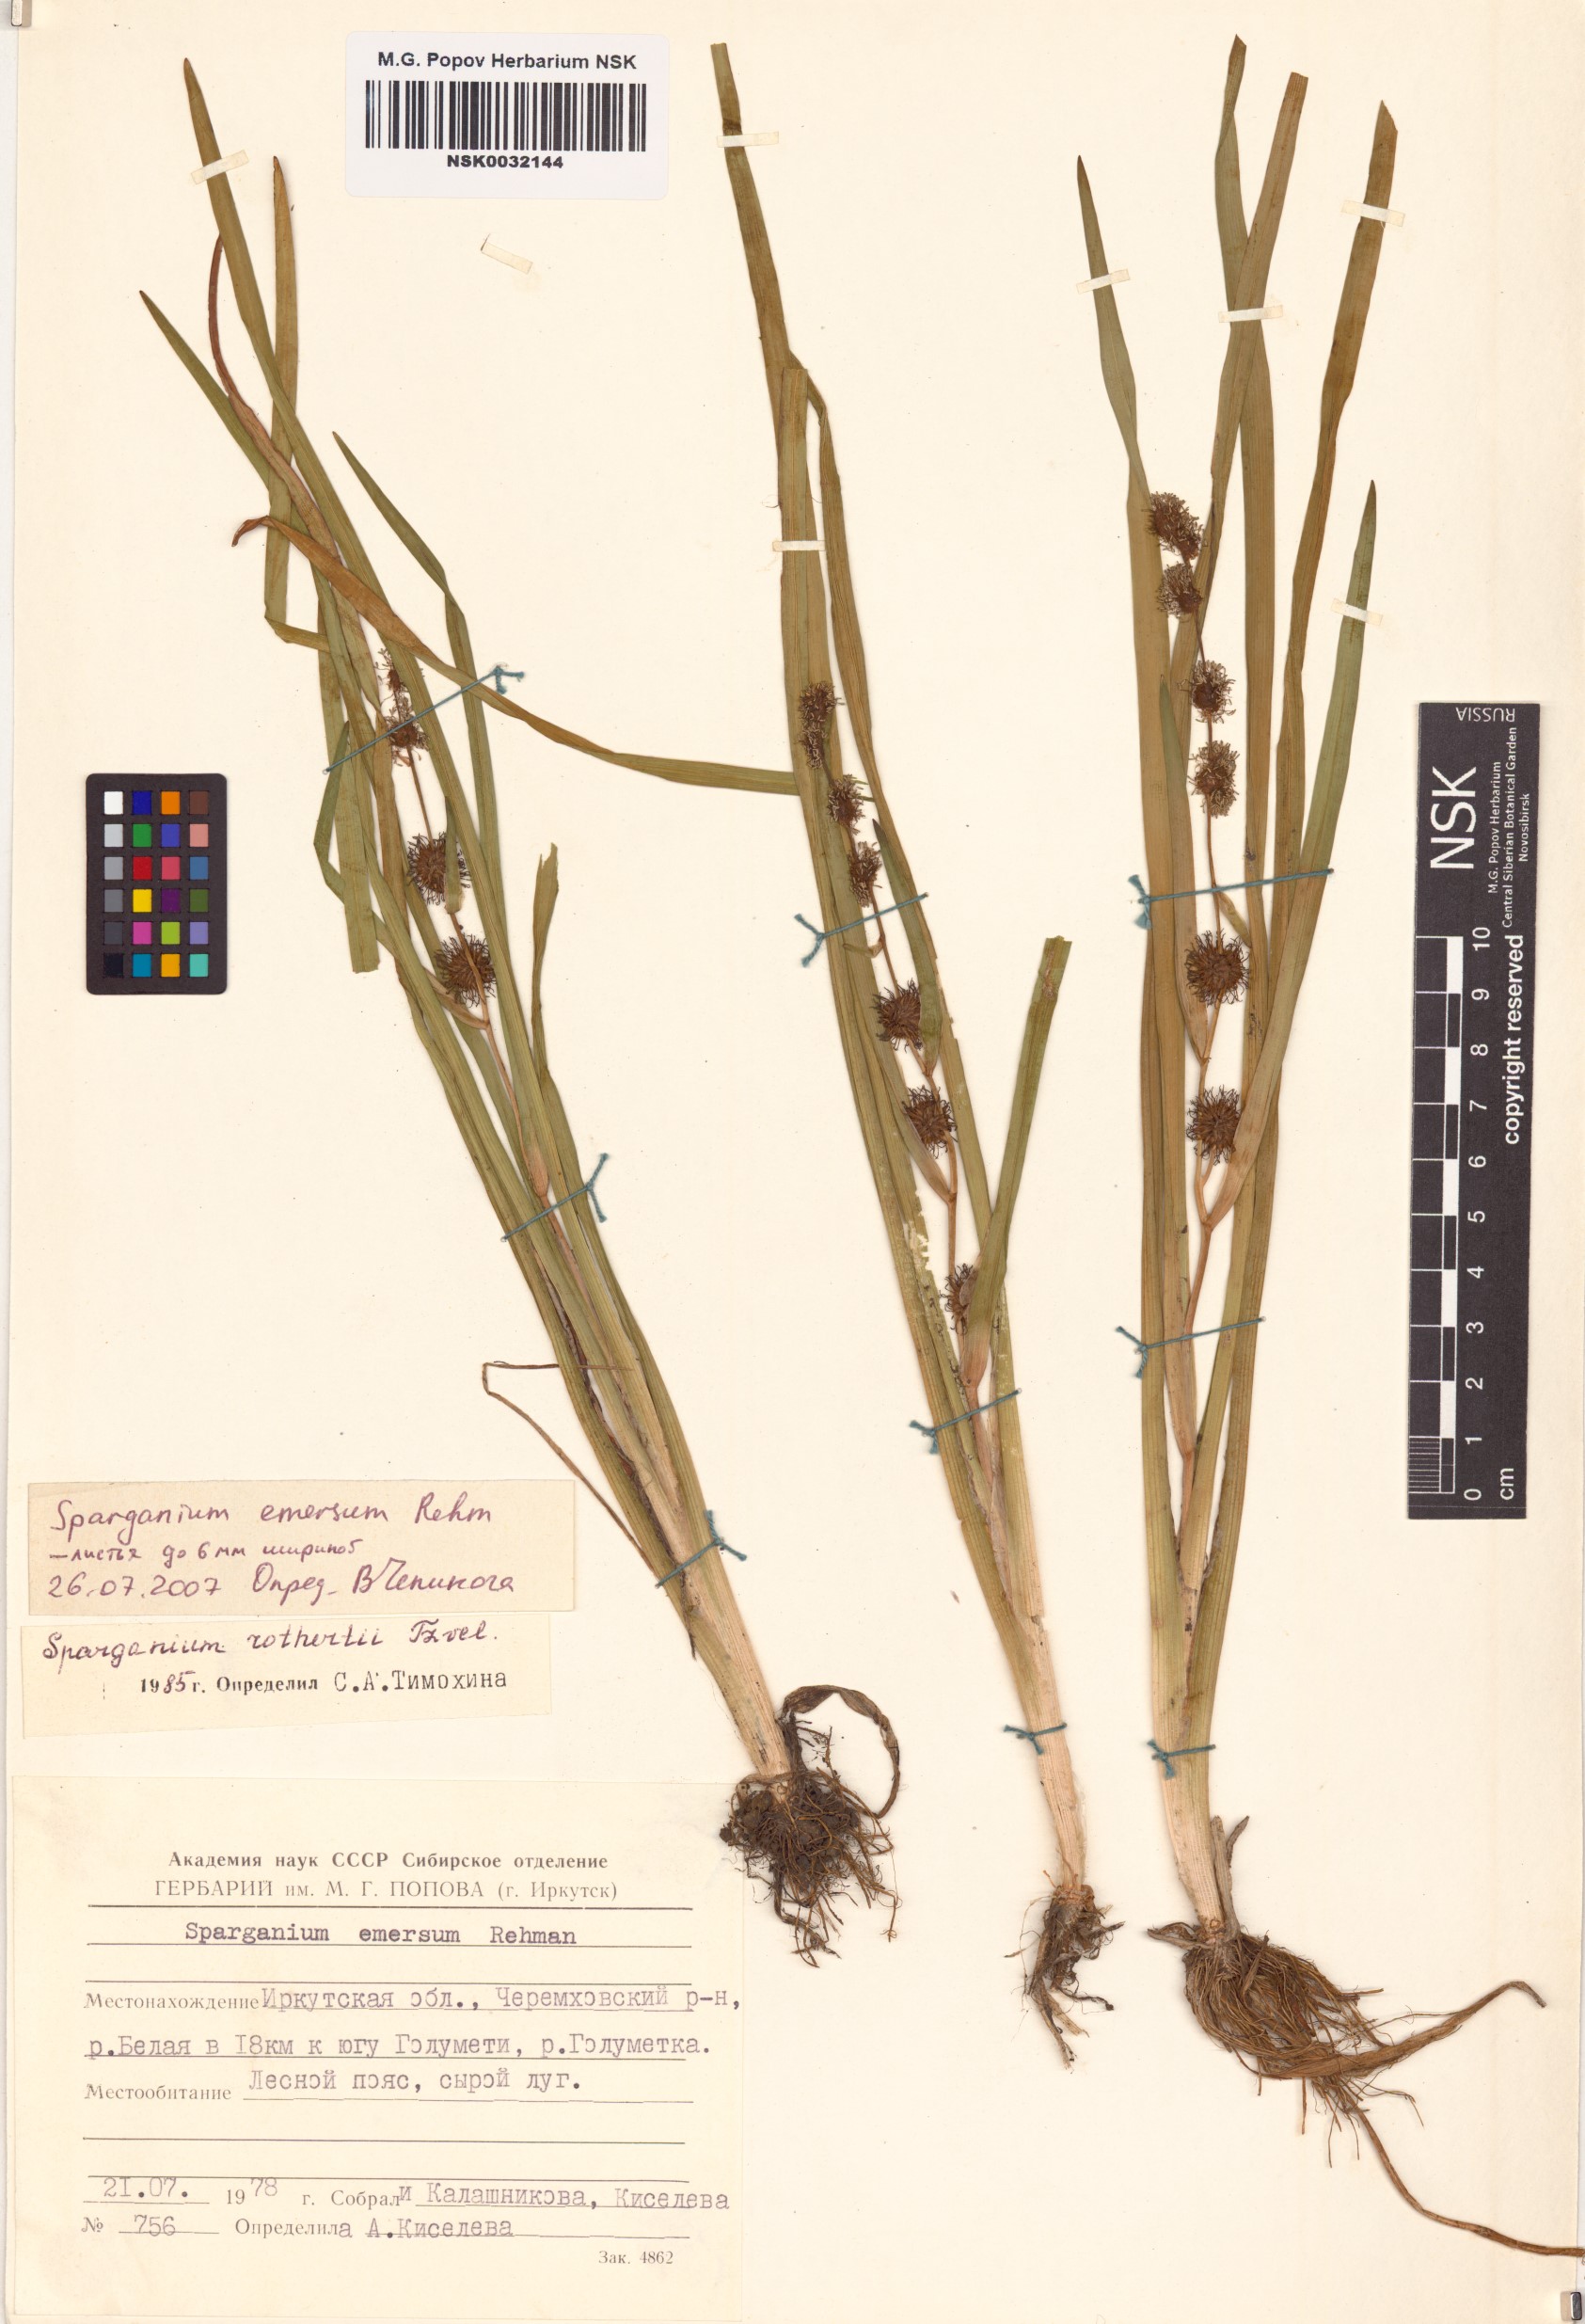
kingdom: Plantae
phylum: Tracheophyta
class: Liliopsida
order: Poales
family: Typhaceae
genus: Sparganium
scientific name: Sparganium emersum
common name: Unbranched bur-reed
